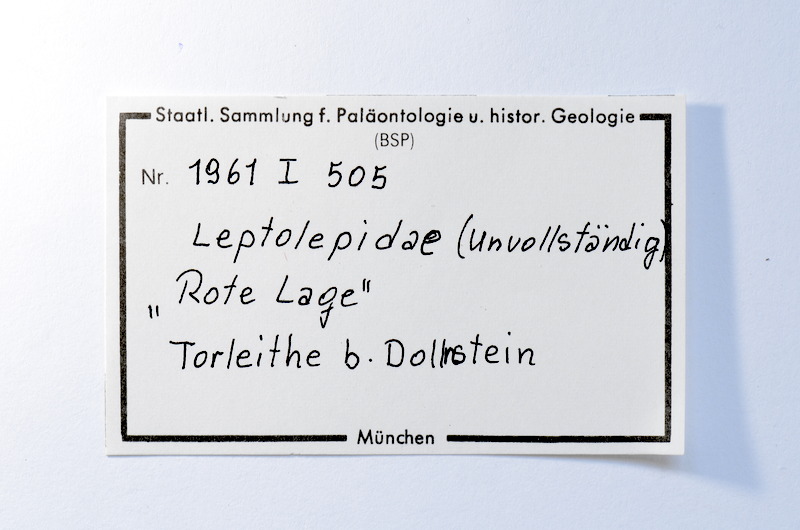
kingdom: Animalia
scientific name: Animalia
